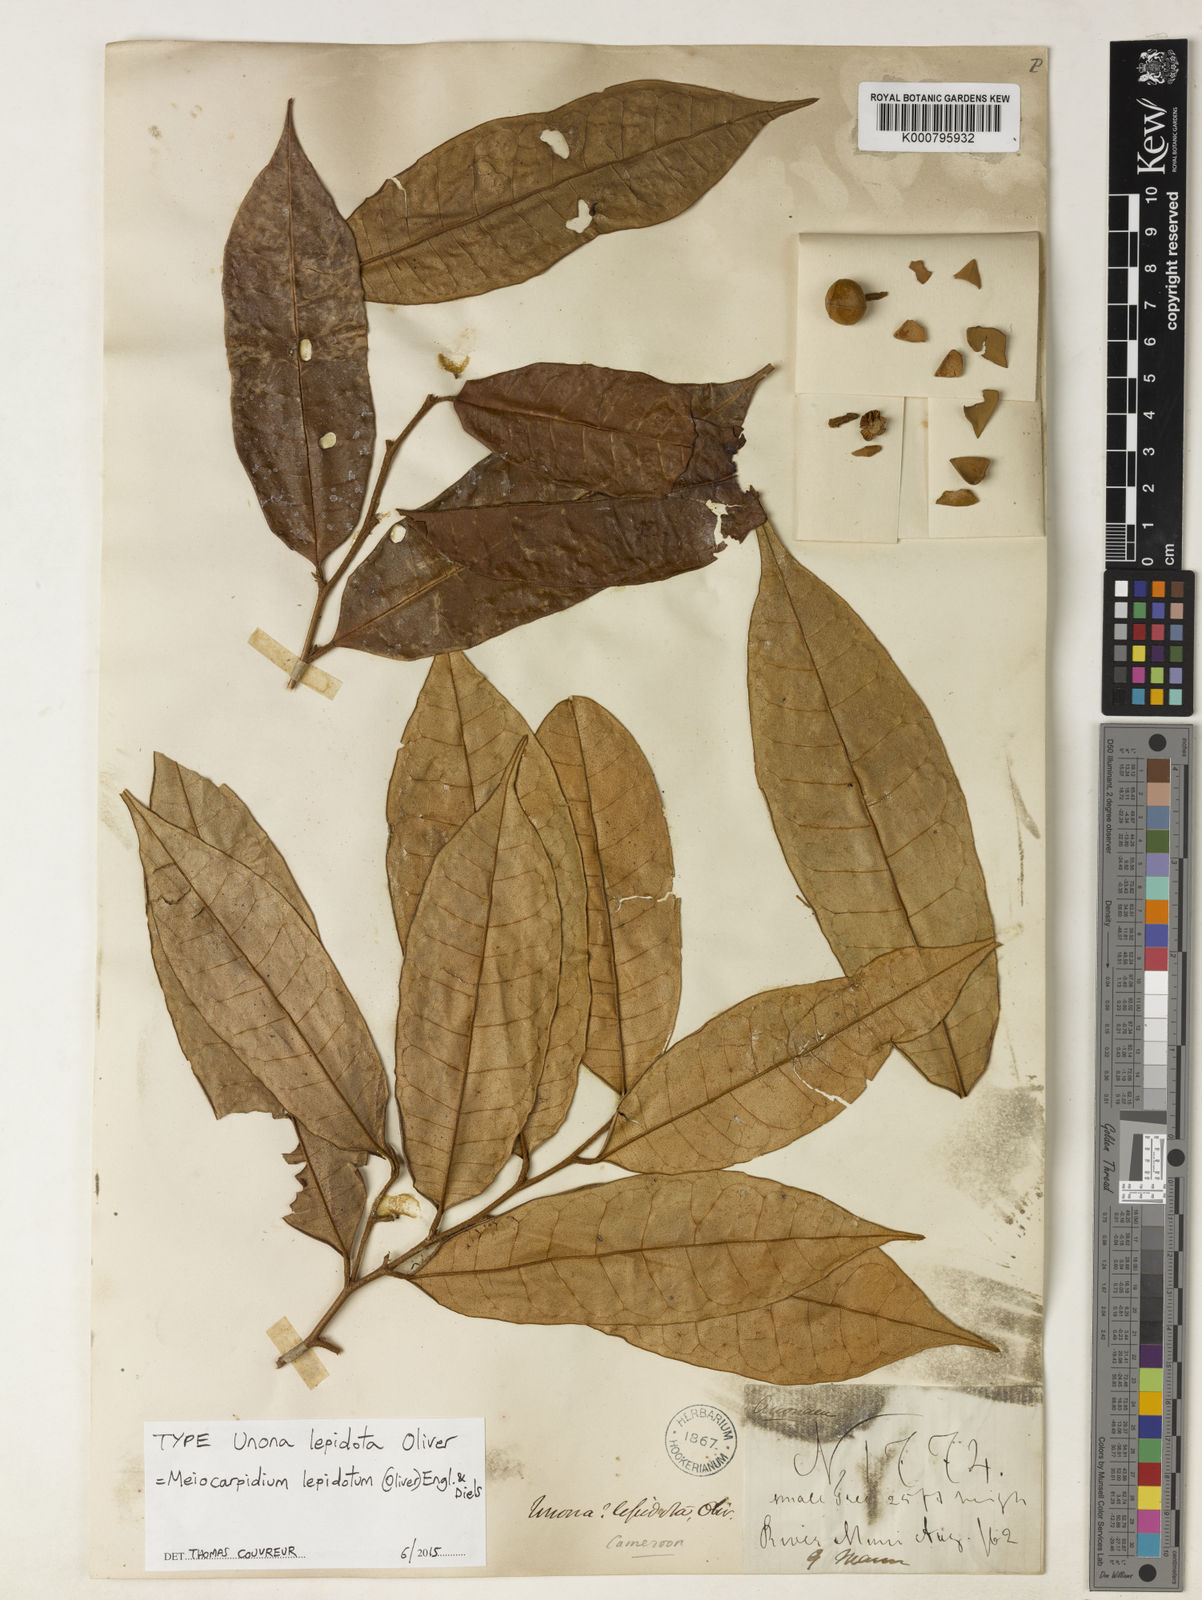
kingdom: Plantae
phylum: Tracheophyta
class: Magnoliopsida
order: Magnoliales
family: Annonaceae
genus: Meiocarpidium
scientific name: Meiocarpidium lepidotum
